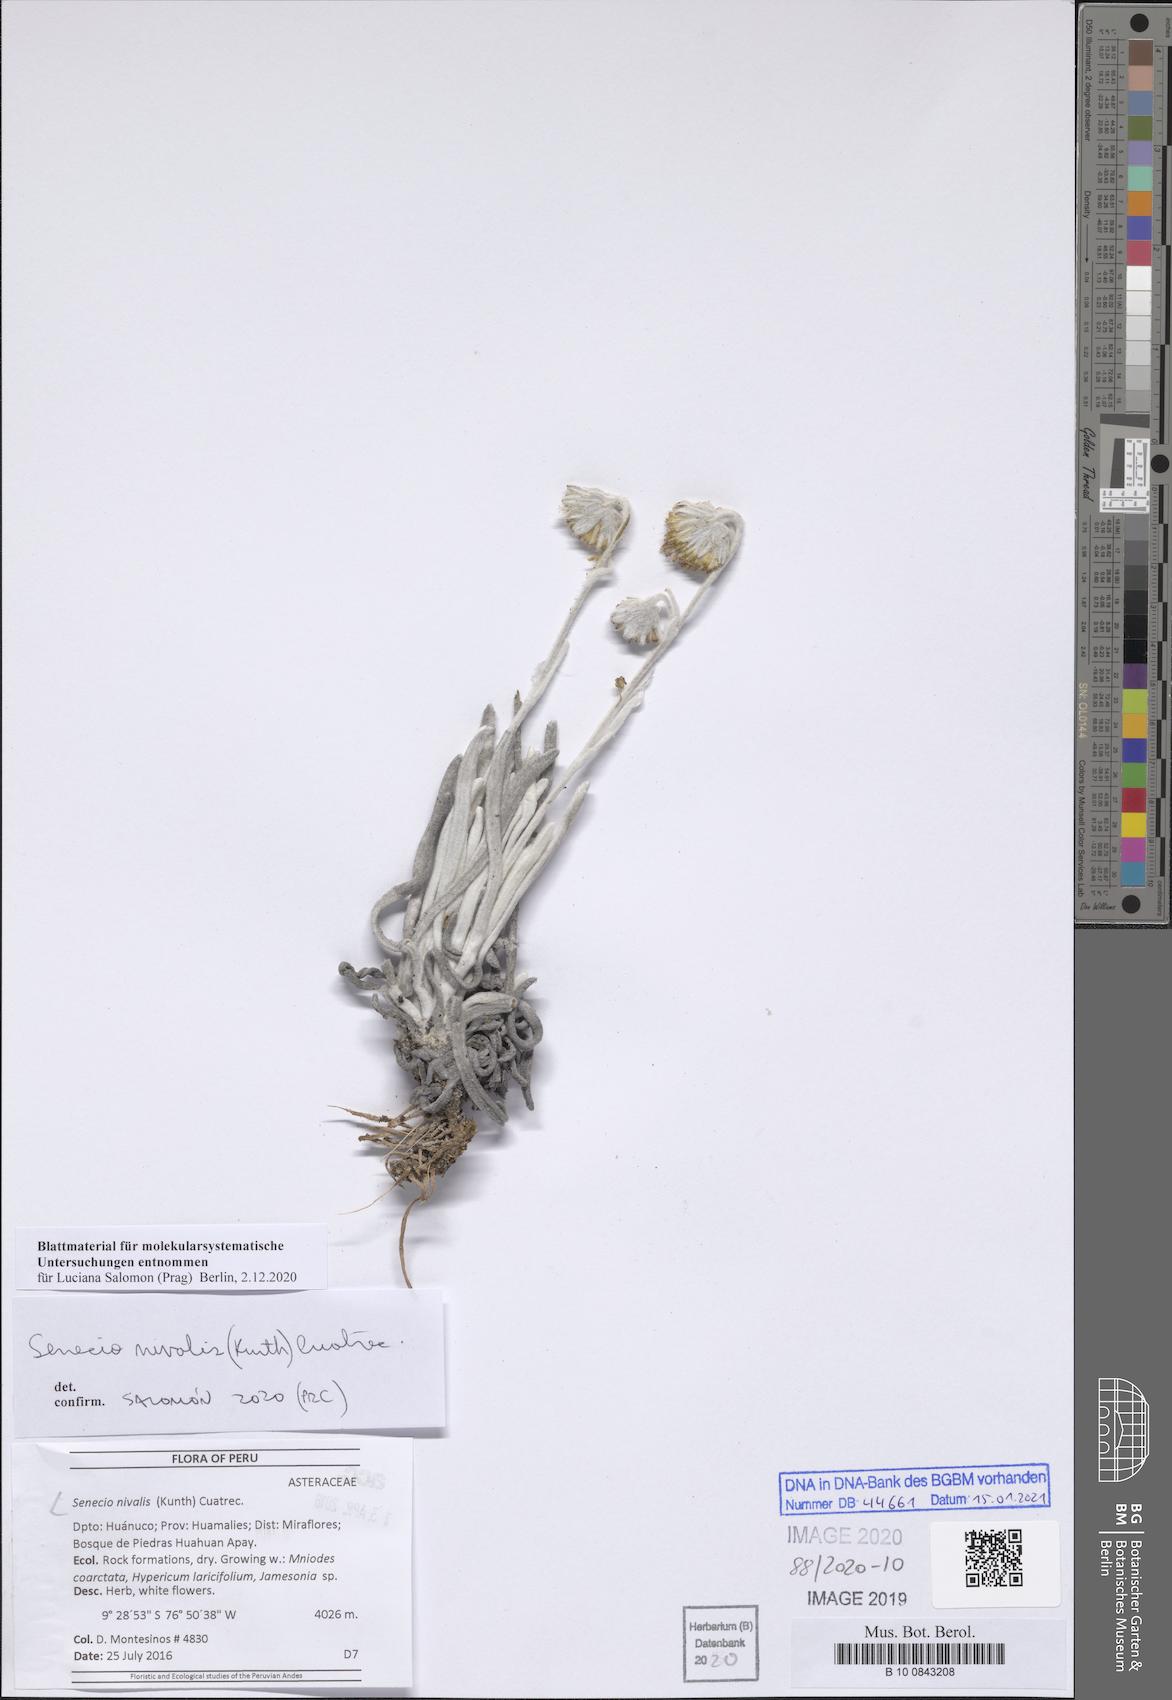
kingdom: Plantae
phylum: Tracheophyta
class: Magnoliopsida
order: Asterales
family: Asteraceae
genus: Culcitium
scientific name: Culcitium nivale
